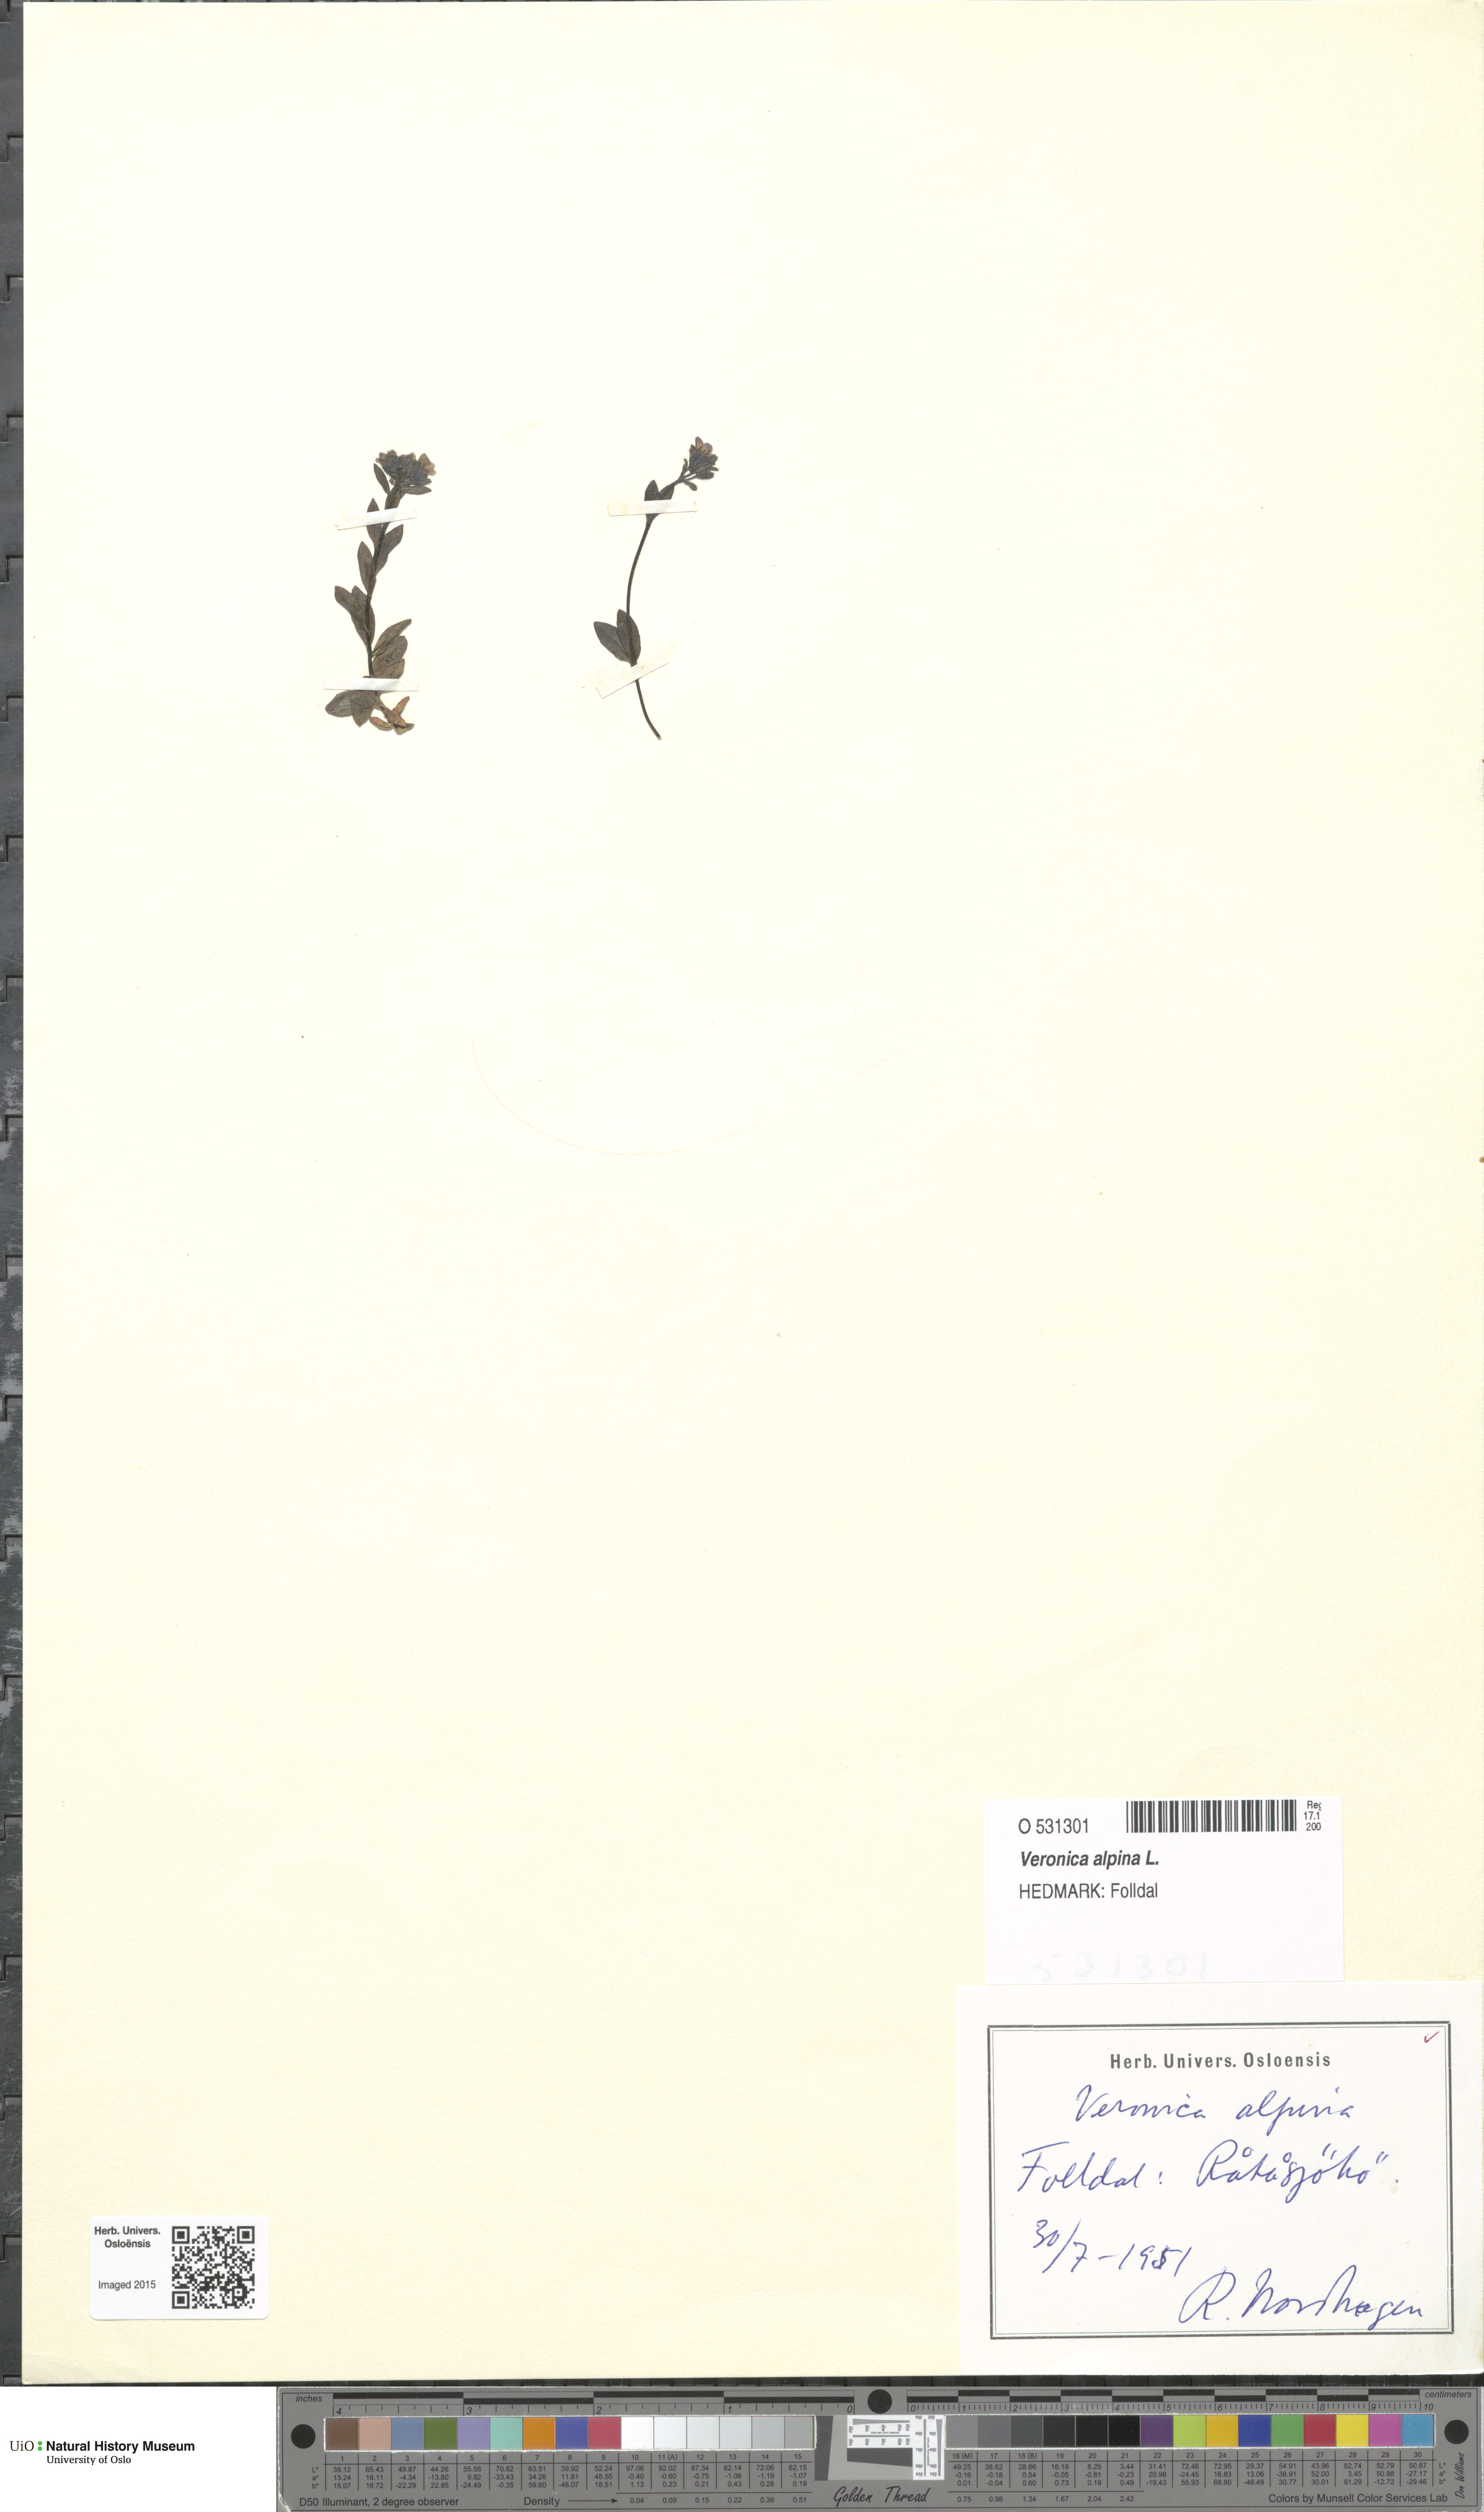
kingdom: Plantae
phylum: Tracheophyta
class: Magnoliopsida
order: Lamiales
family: Plantaginaceae
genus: Veronica
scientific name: Veronica alpina
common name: Alpine speedwell
